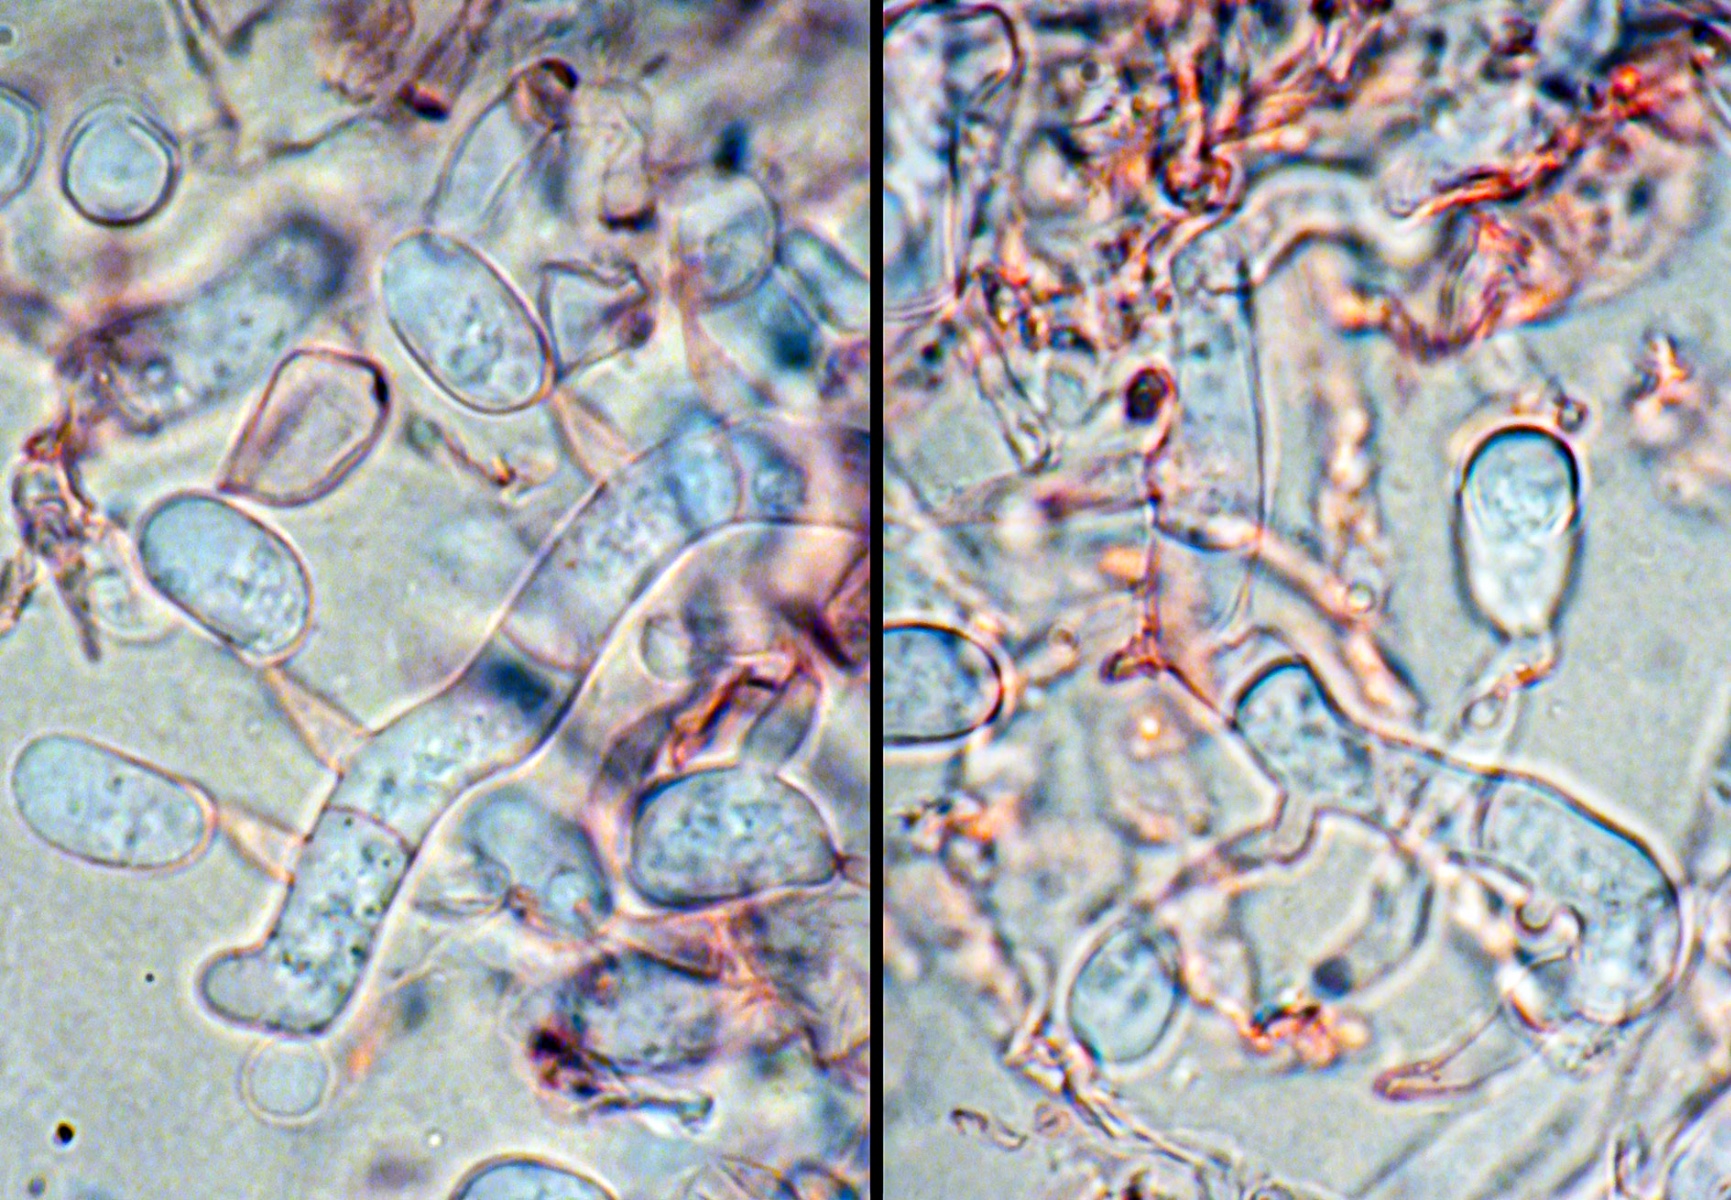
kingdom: Fungi
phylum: Basidiomycota
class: Atractiellomycetes
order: Atractiellales
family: Phleogenaceae
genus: Helicogloea
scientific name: Helicogloea lagerheimii
